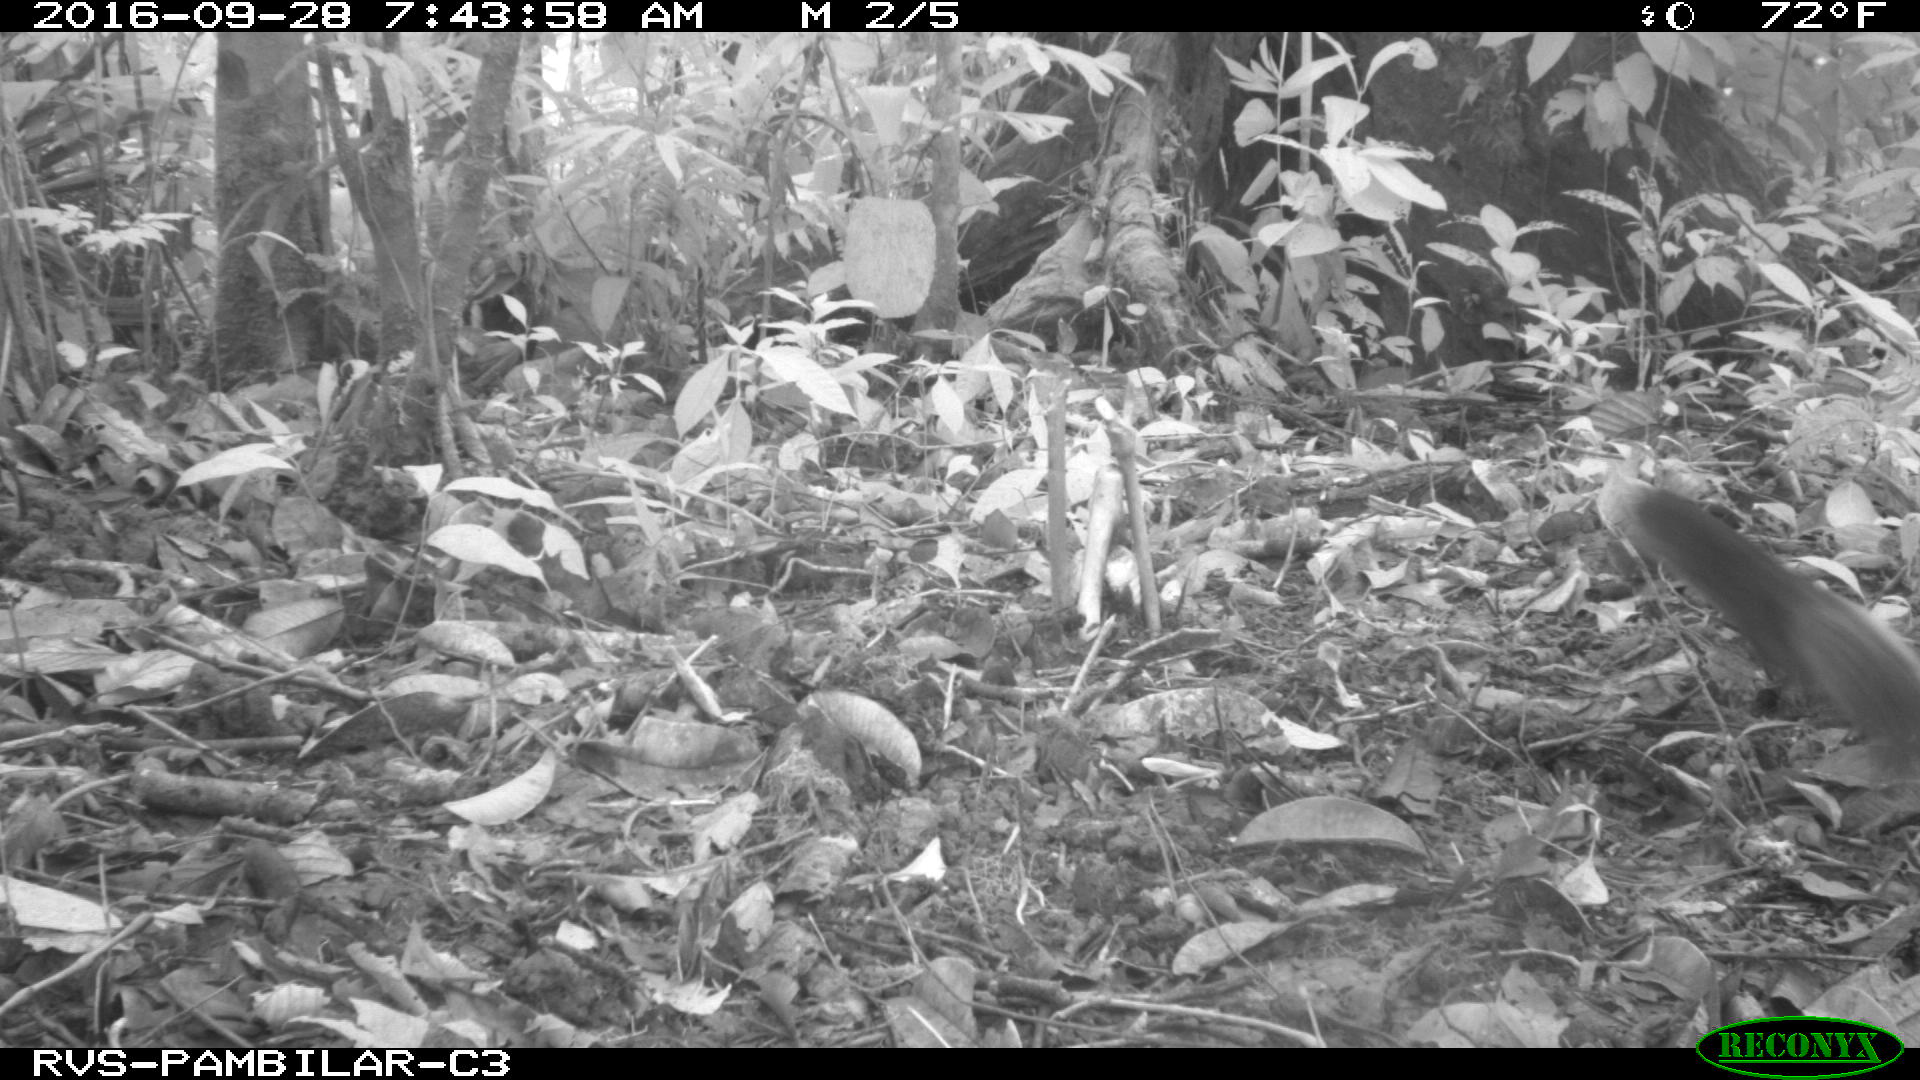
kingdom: Animalia
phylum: Chordata
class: Mammalia
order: Rodentia
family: Sciuridae
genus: Sciurus
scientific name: Sciurus granatensis
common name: Red-tailed squirrel
